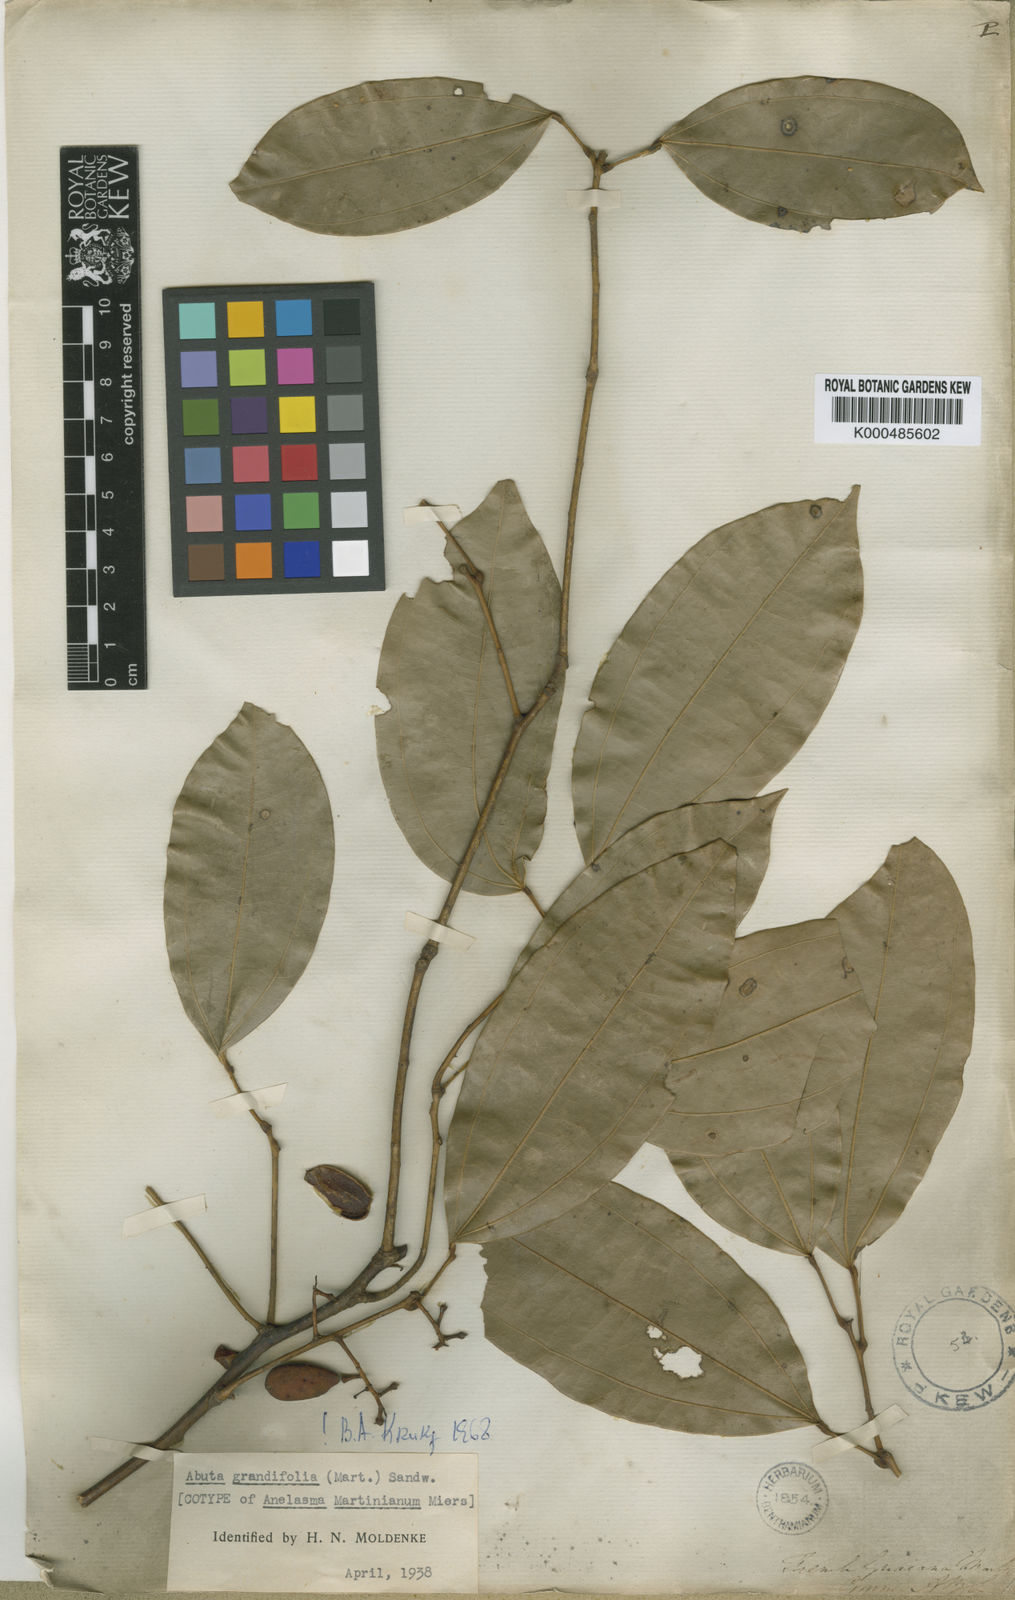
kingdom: Plantae
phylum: Tracheophyta
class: Magnoliopsida
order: Ranunculales
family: Menispermaceae
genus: Abuta
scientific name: Abuta grandifolia
